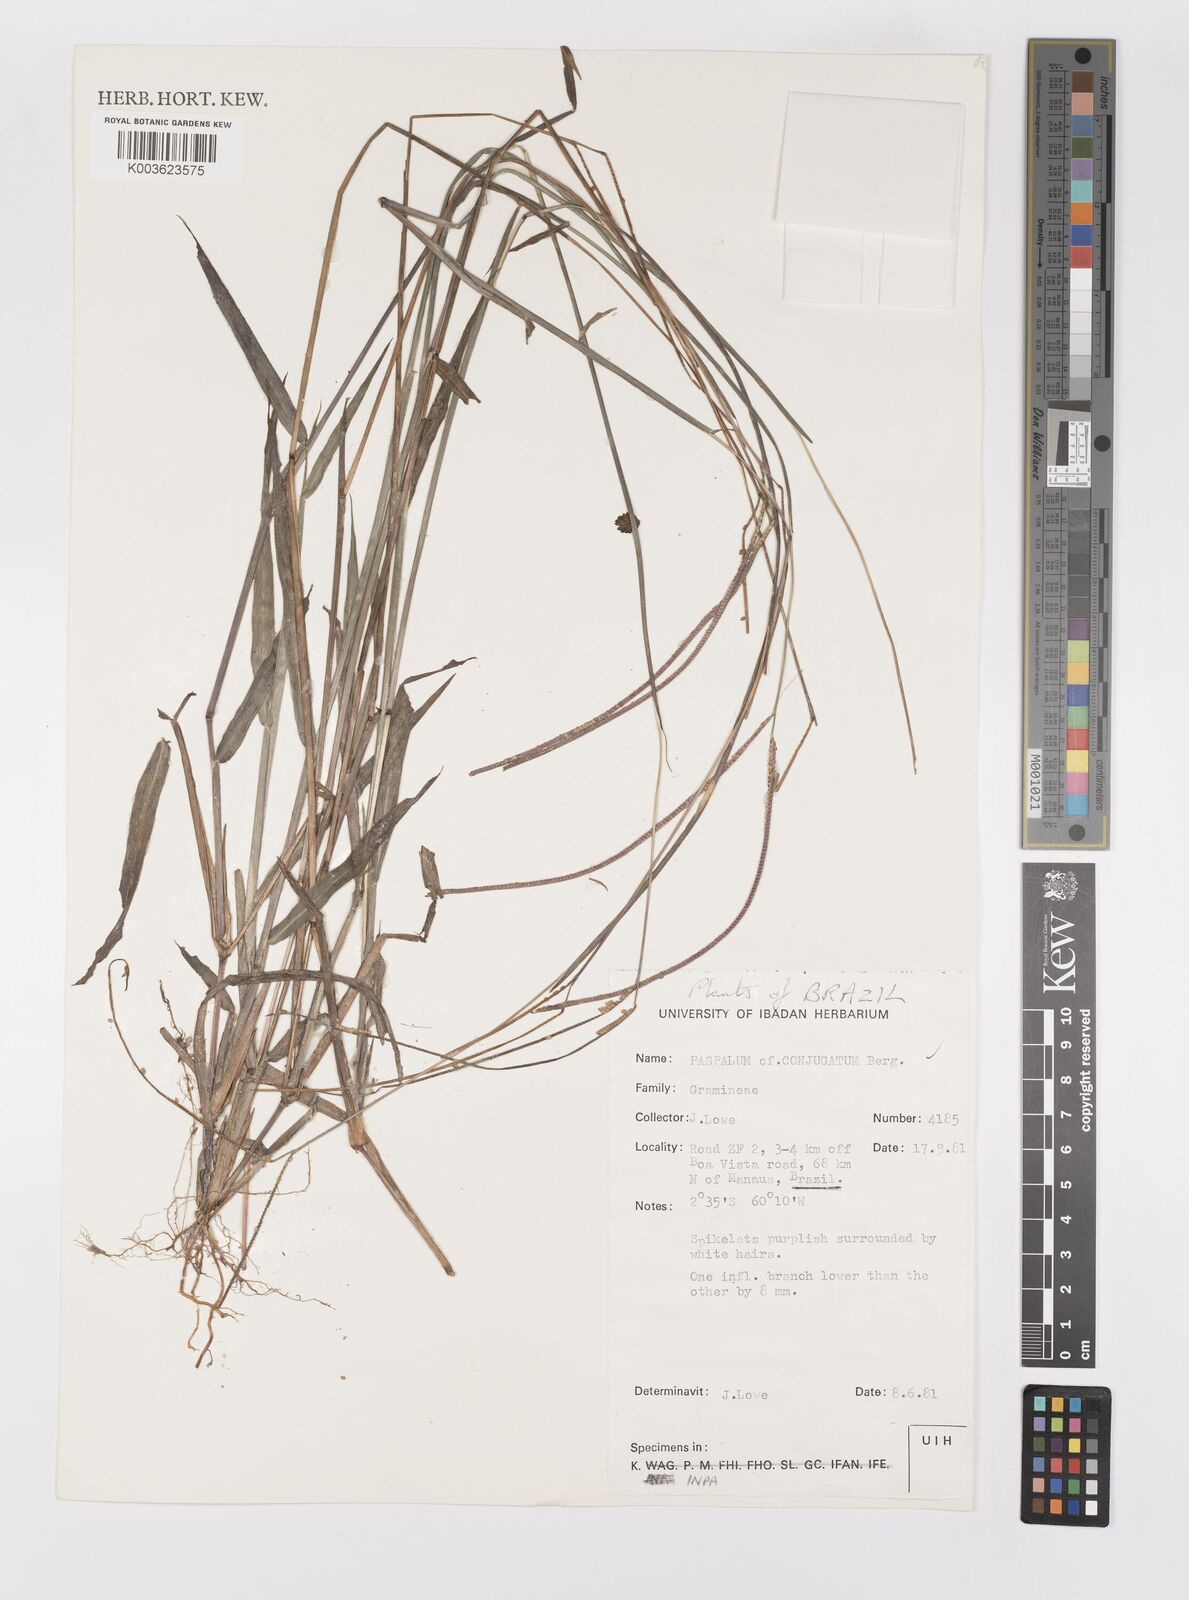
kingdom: Plantae
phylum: Tracheophyta
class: Liliopsida
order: Poales
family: Poaceae
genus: Paspalum
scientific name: Paspalum conjugatum
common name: Hilograss
